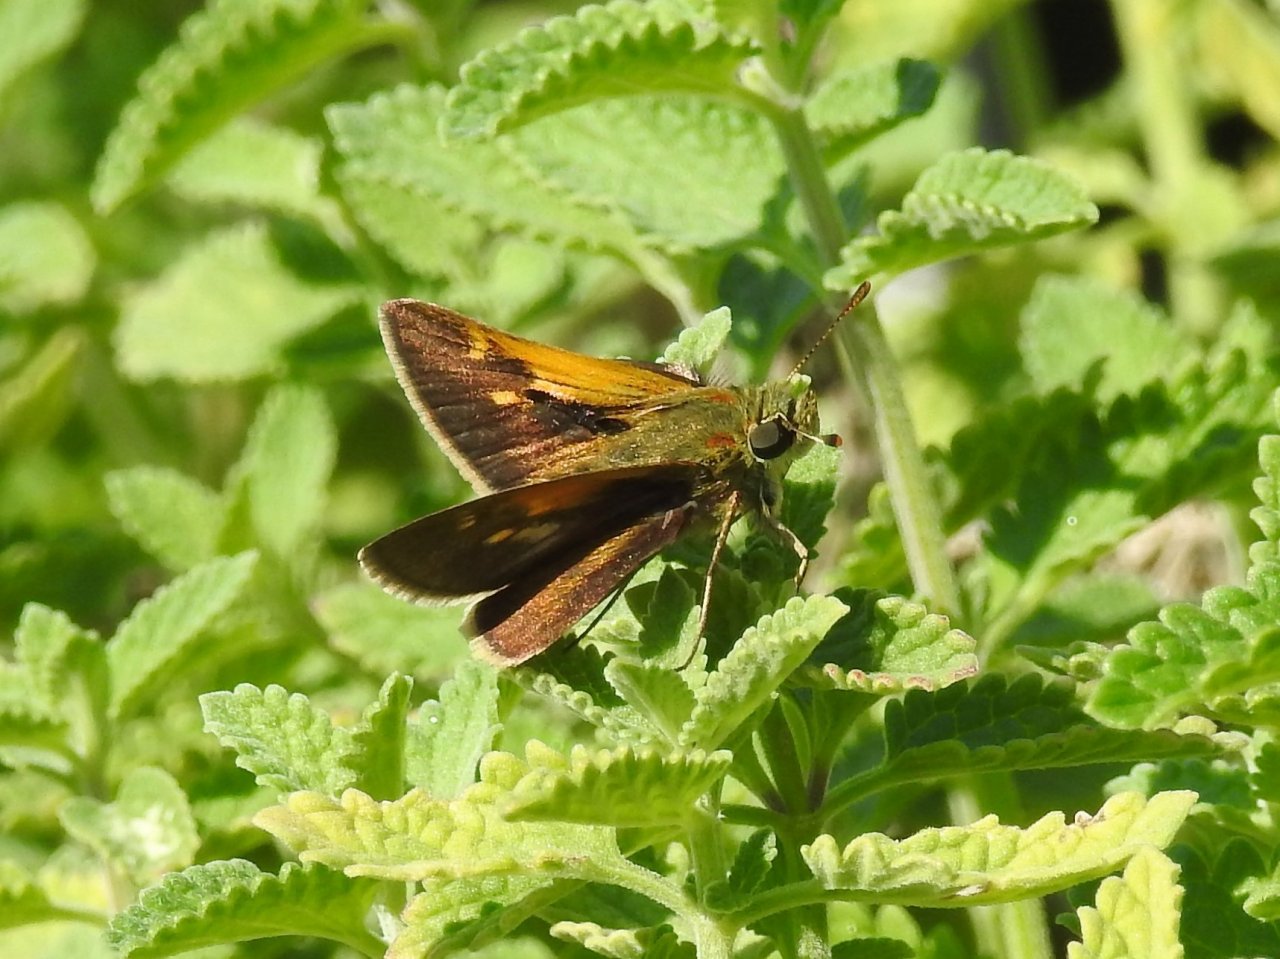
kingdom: Animalia
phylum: Arthropoda
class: Insecta
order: Lepidoptera
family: Hesperiidae
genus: Polites
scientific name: Polites themistocles
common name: Tawny-edged Skipper
